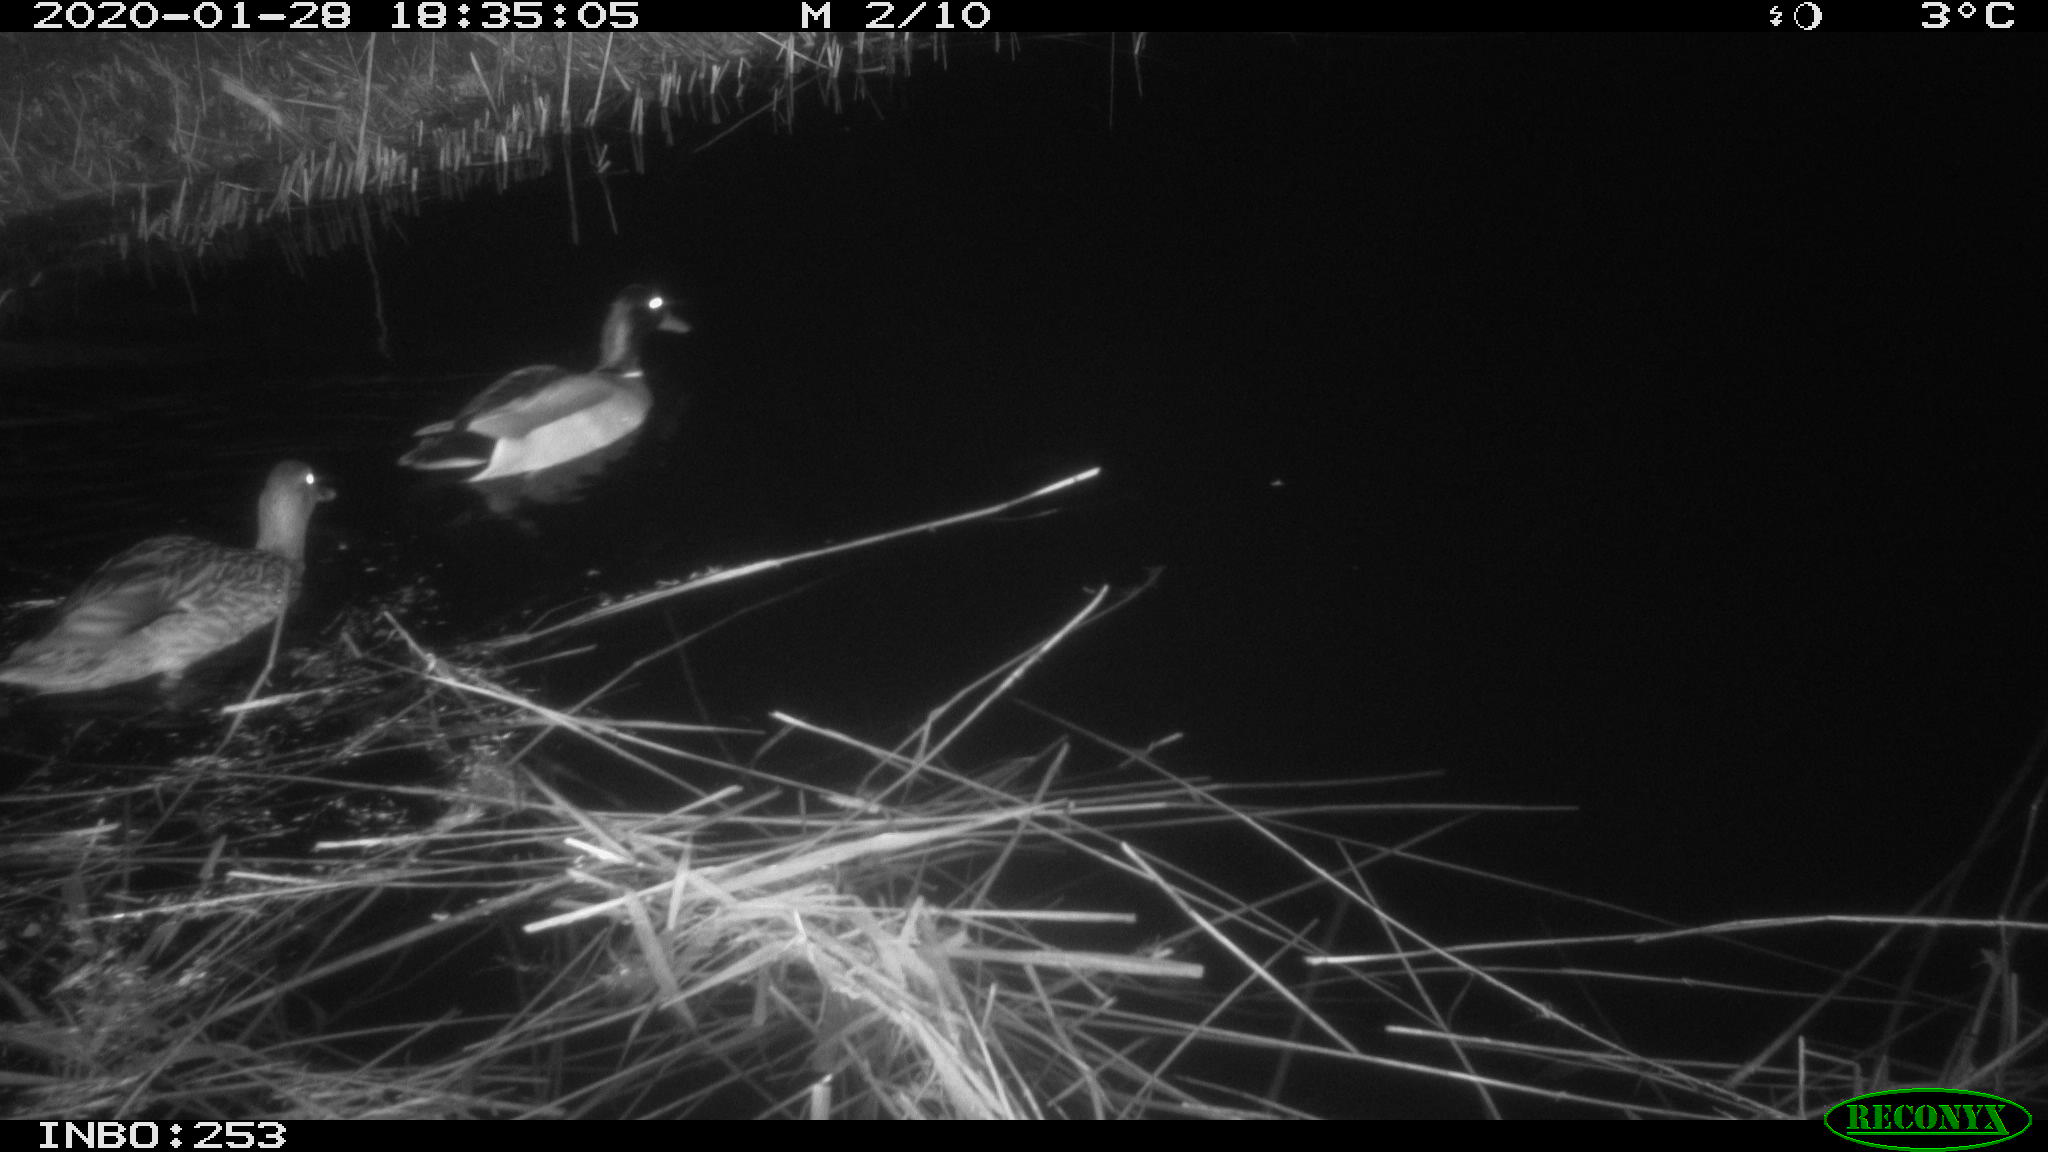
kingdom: Animalia
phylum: Chordata
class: Aves
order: Anseriformes
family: Anatidae
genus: Anas
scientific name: Anas platyrhynchos
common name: Mallard
